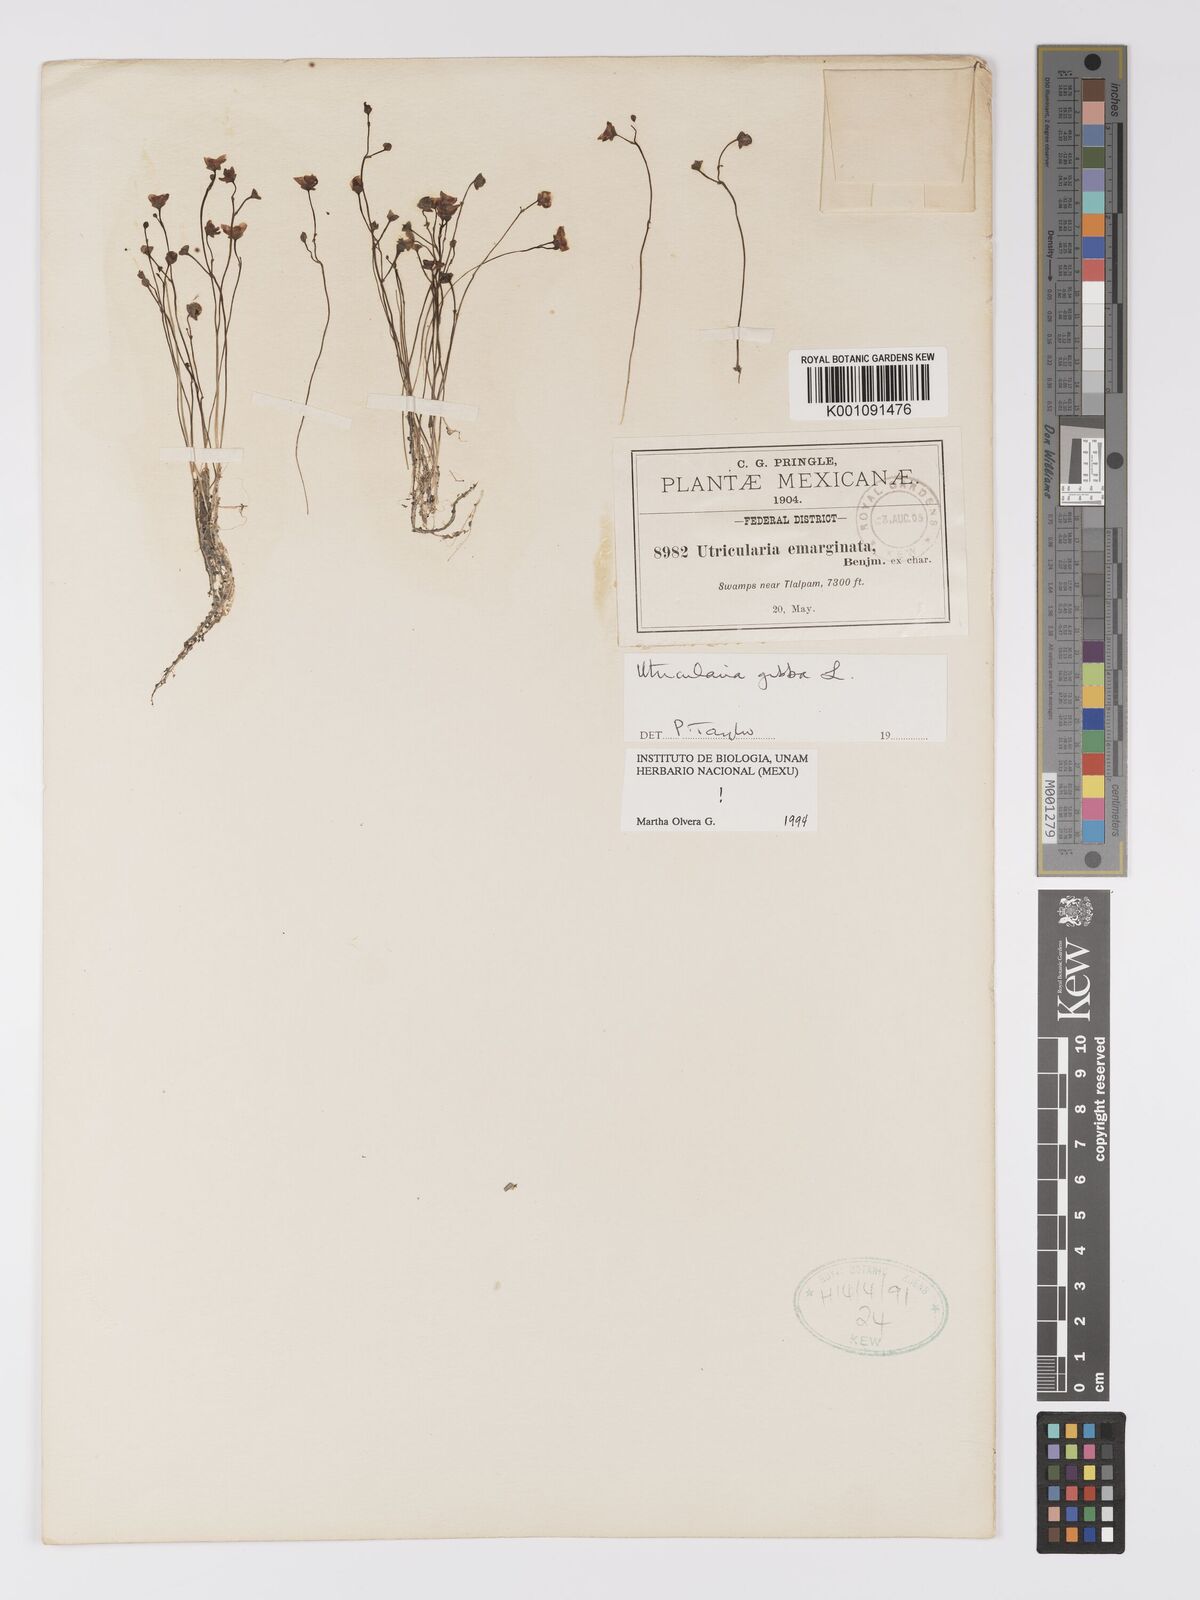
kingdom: Plantae
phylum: Tracheophyta
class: Magnoliopsida
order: Lamiales
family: Lentibulariaceae
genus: Utricularia
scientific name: Utricularia gibba
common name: Humped bladderwort
